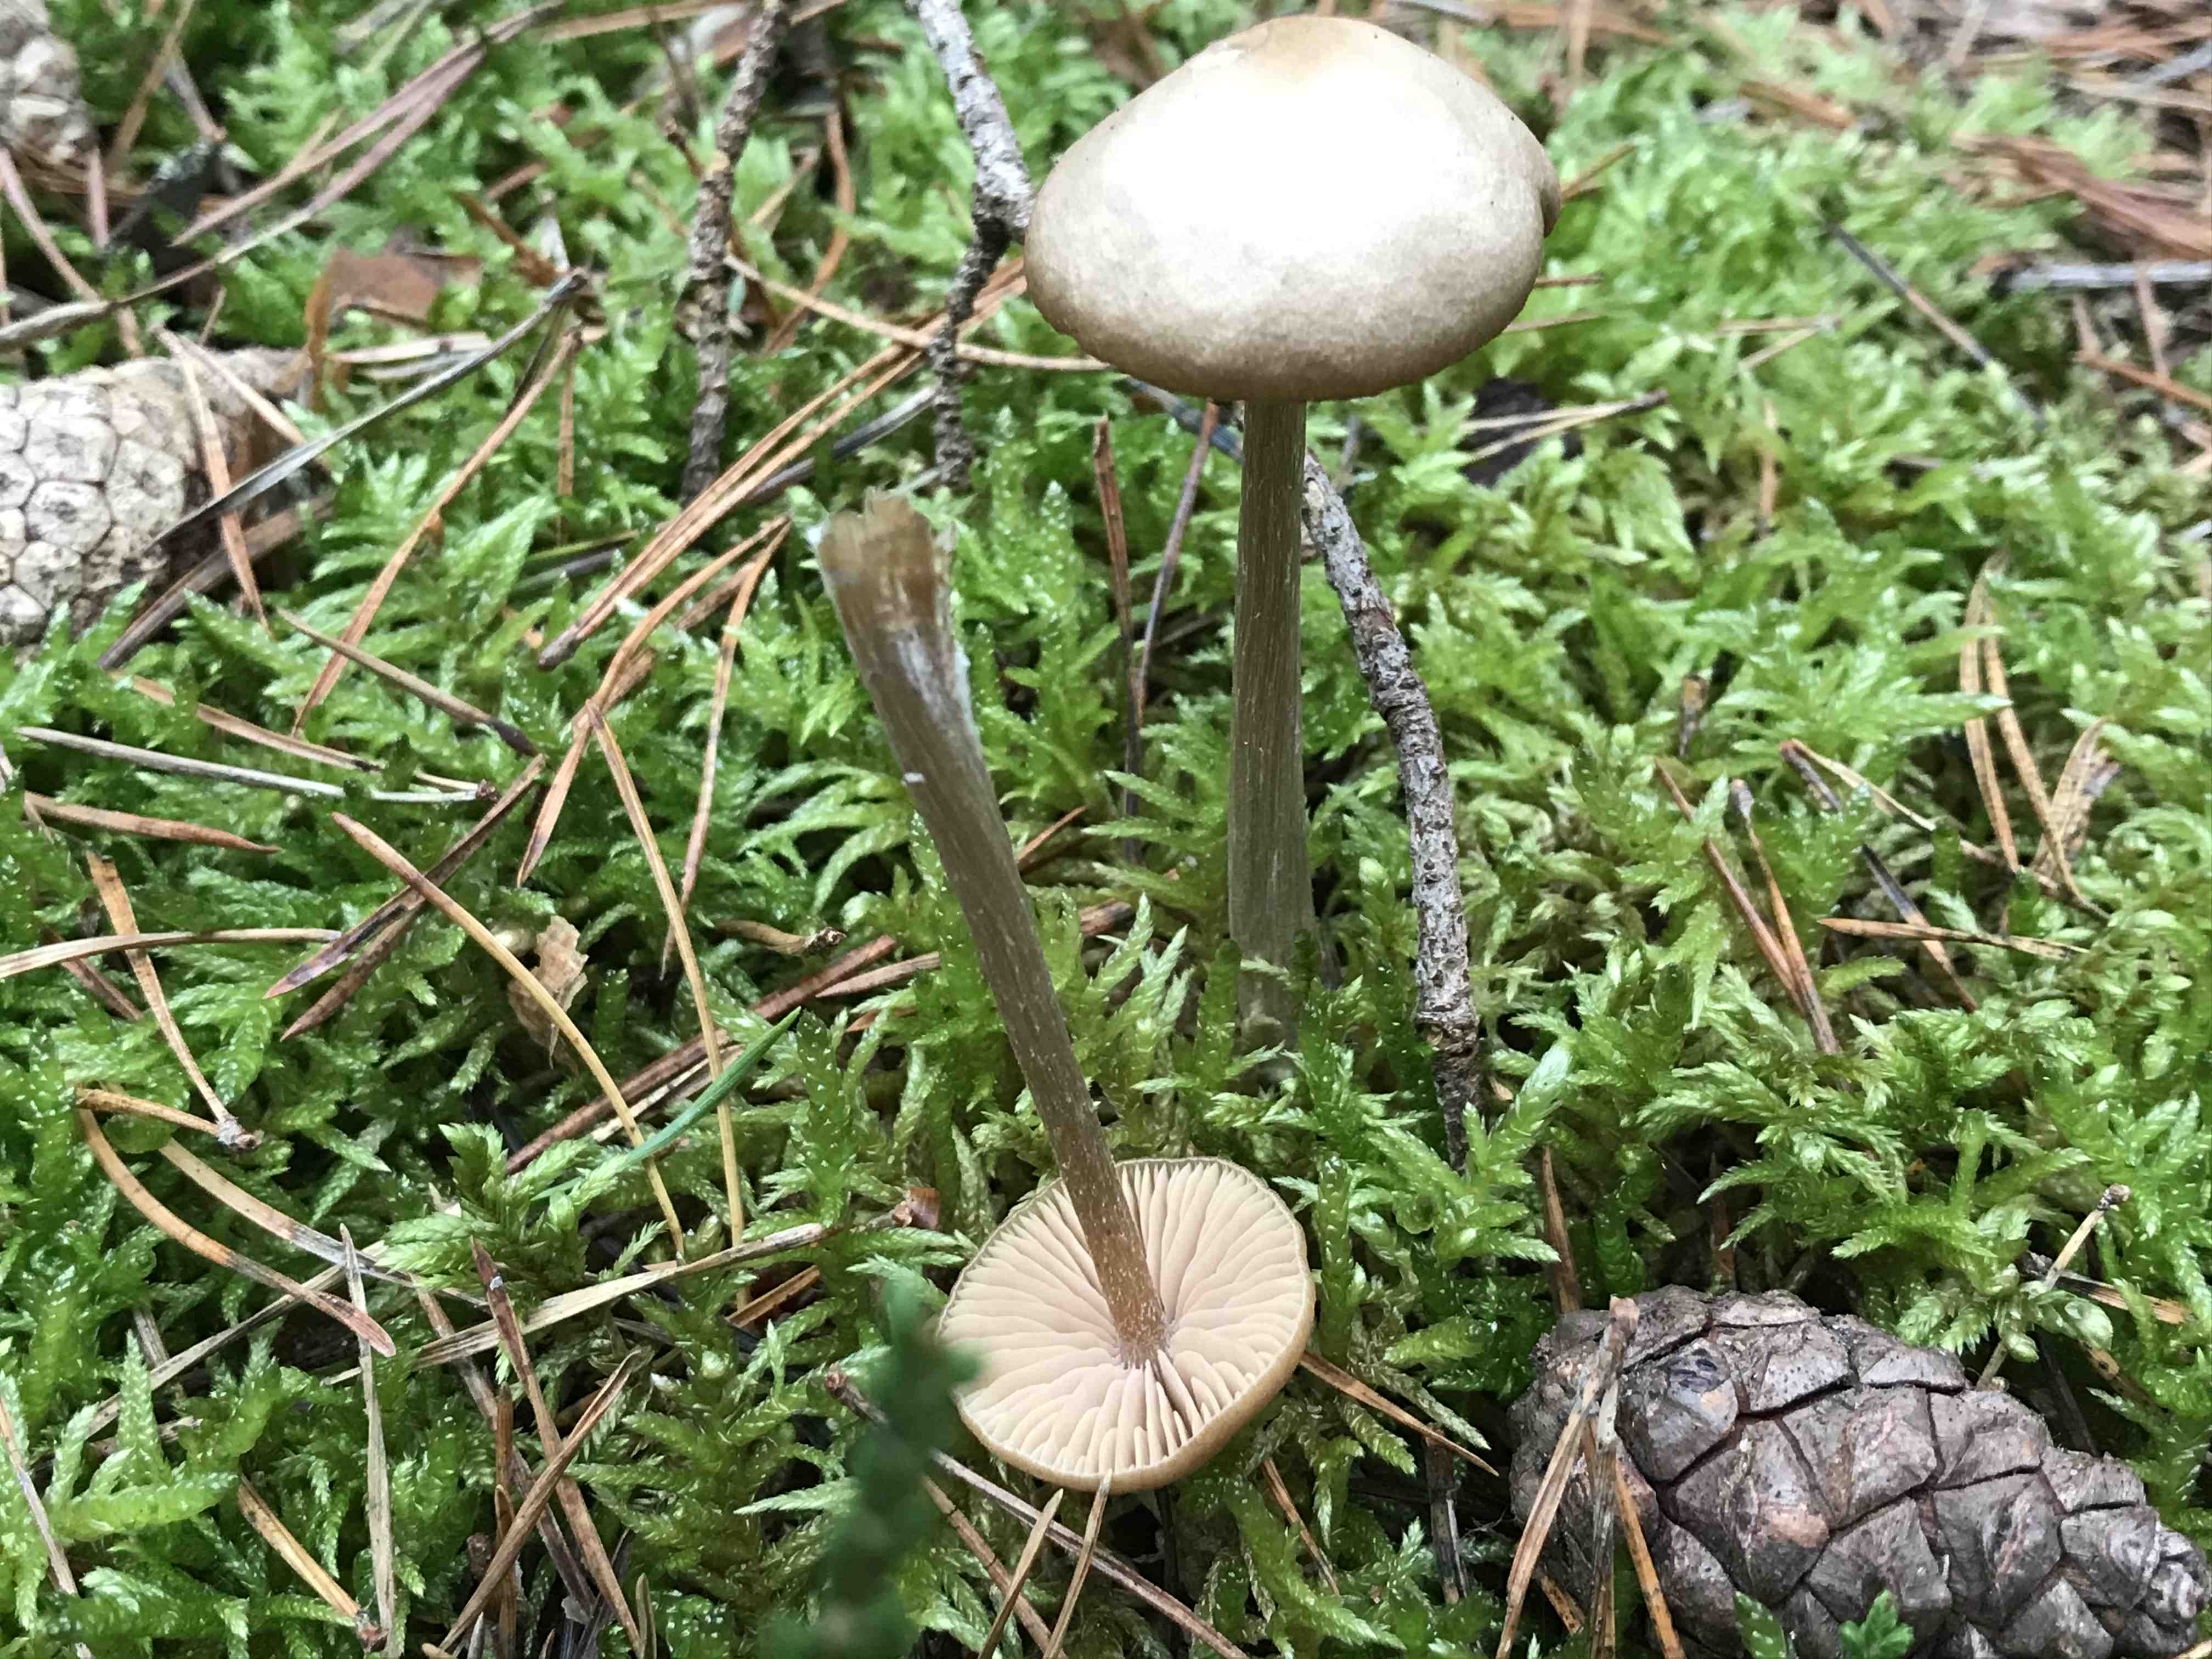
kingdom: Fungi
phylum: Basidiomycota
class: Agaricomycetes
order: Agaricales
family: Entolomataceae
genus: Entoloma
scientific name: Entoloma
